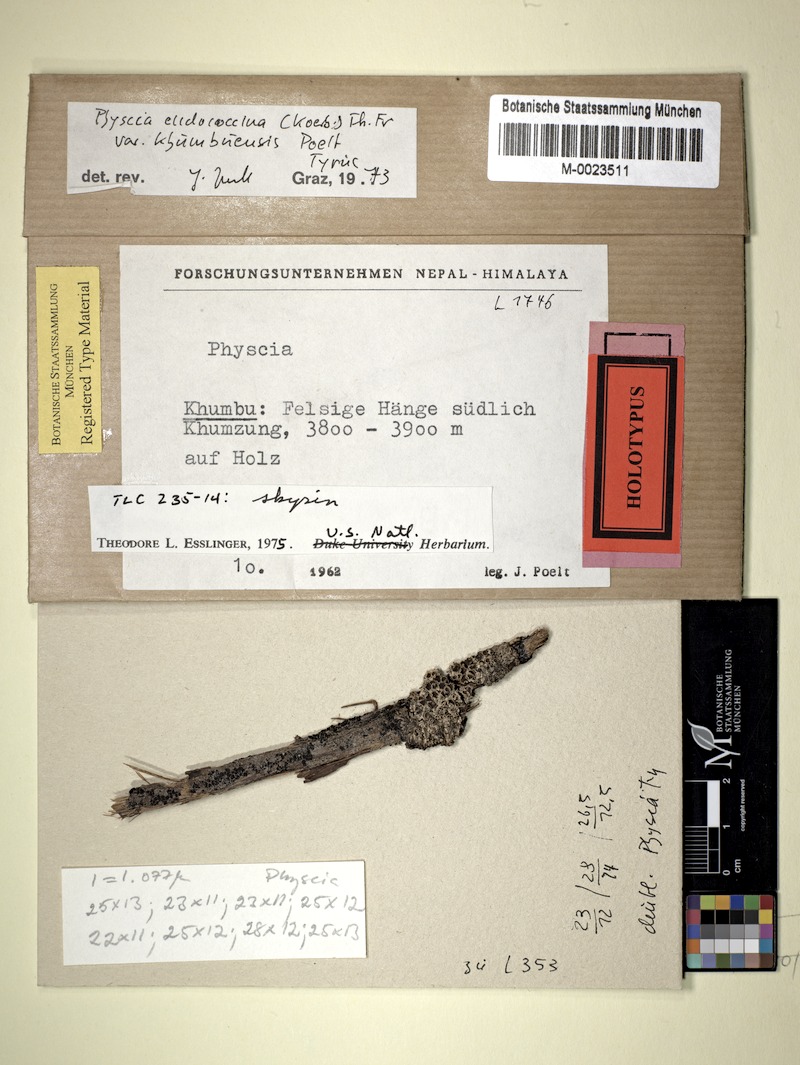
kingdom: Fungi
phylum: Ascomycota
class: Lecanoromycetes
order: Caliciales
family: Physciaceae
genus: Phaeophyscia
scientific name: Phaeophyscia endococcina
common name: Starburst shadow lichen
